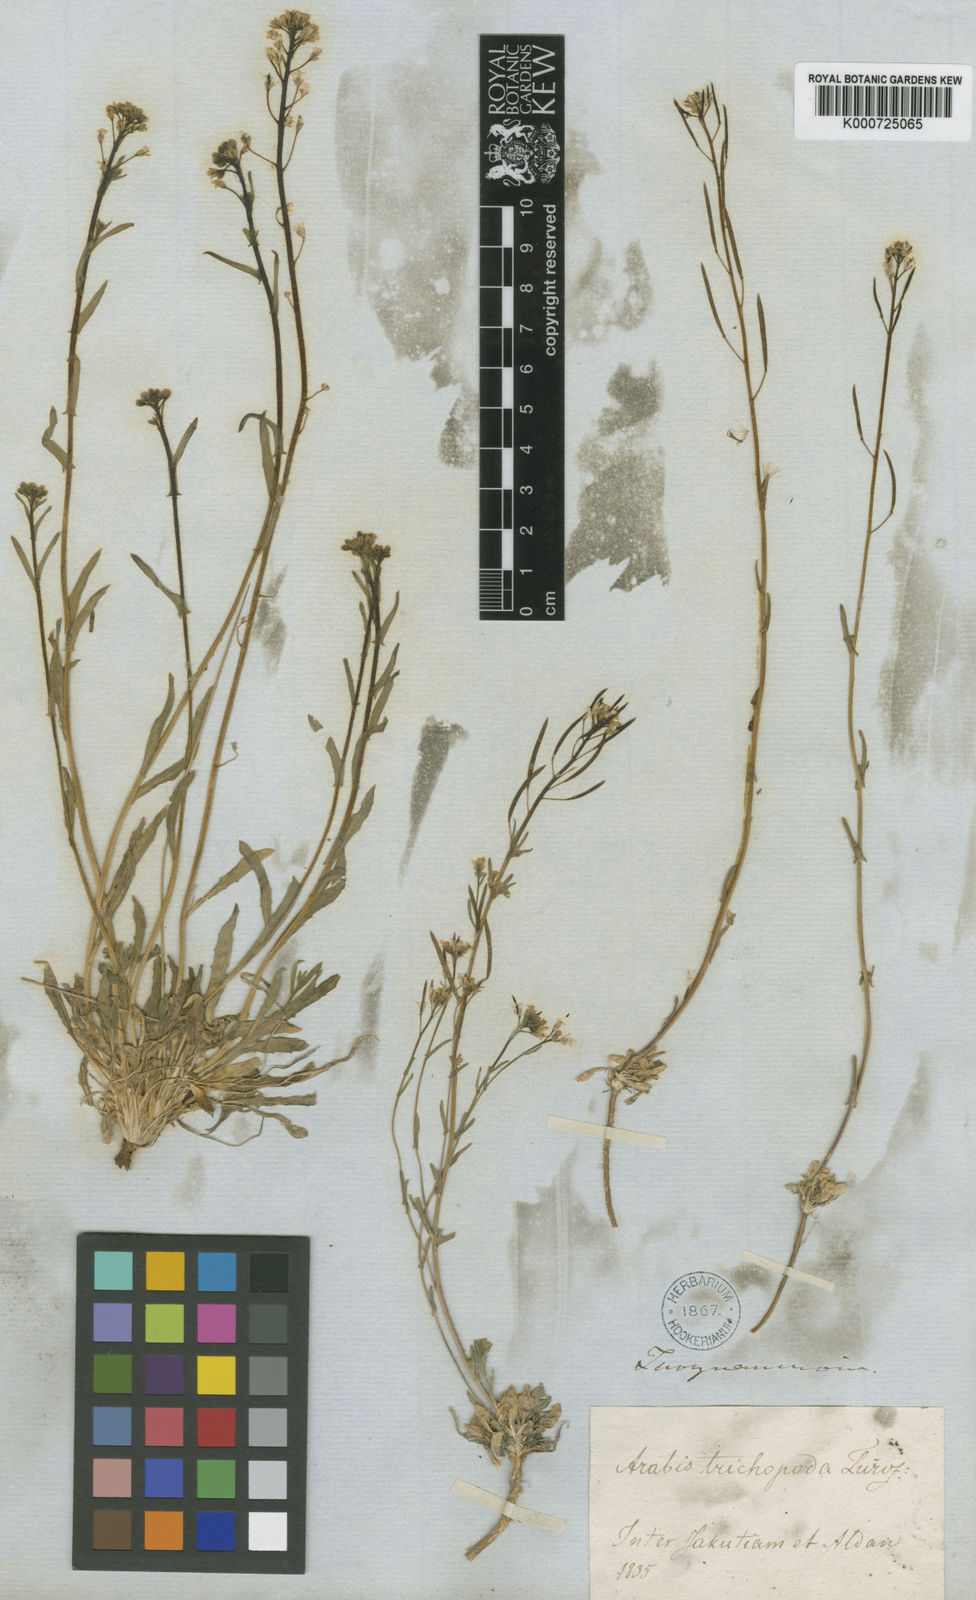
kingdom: Plantae
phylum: Tracheophyta
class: Magnoliopsida
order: Brassicales
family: Brassicaceae
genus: Crucihimalaya
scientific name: Crucihimalaya bursifolia
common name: Soft fissurewort
